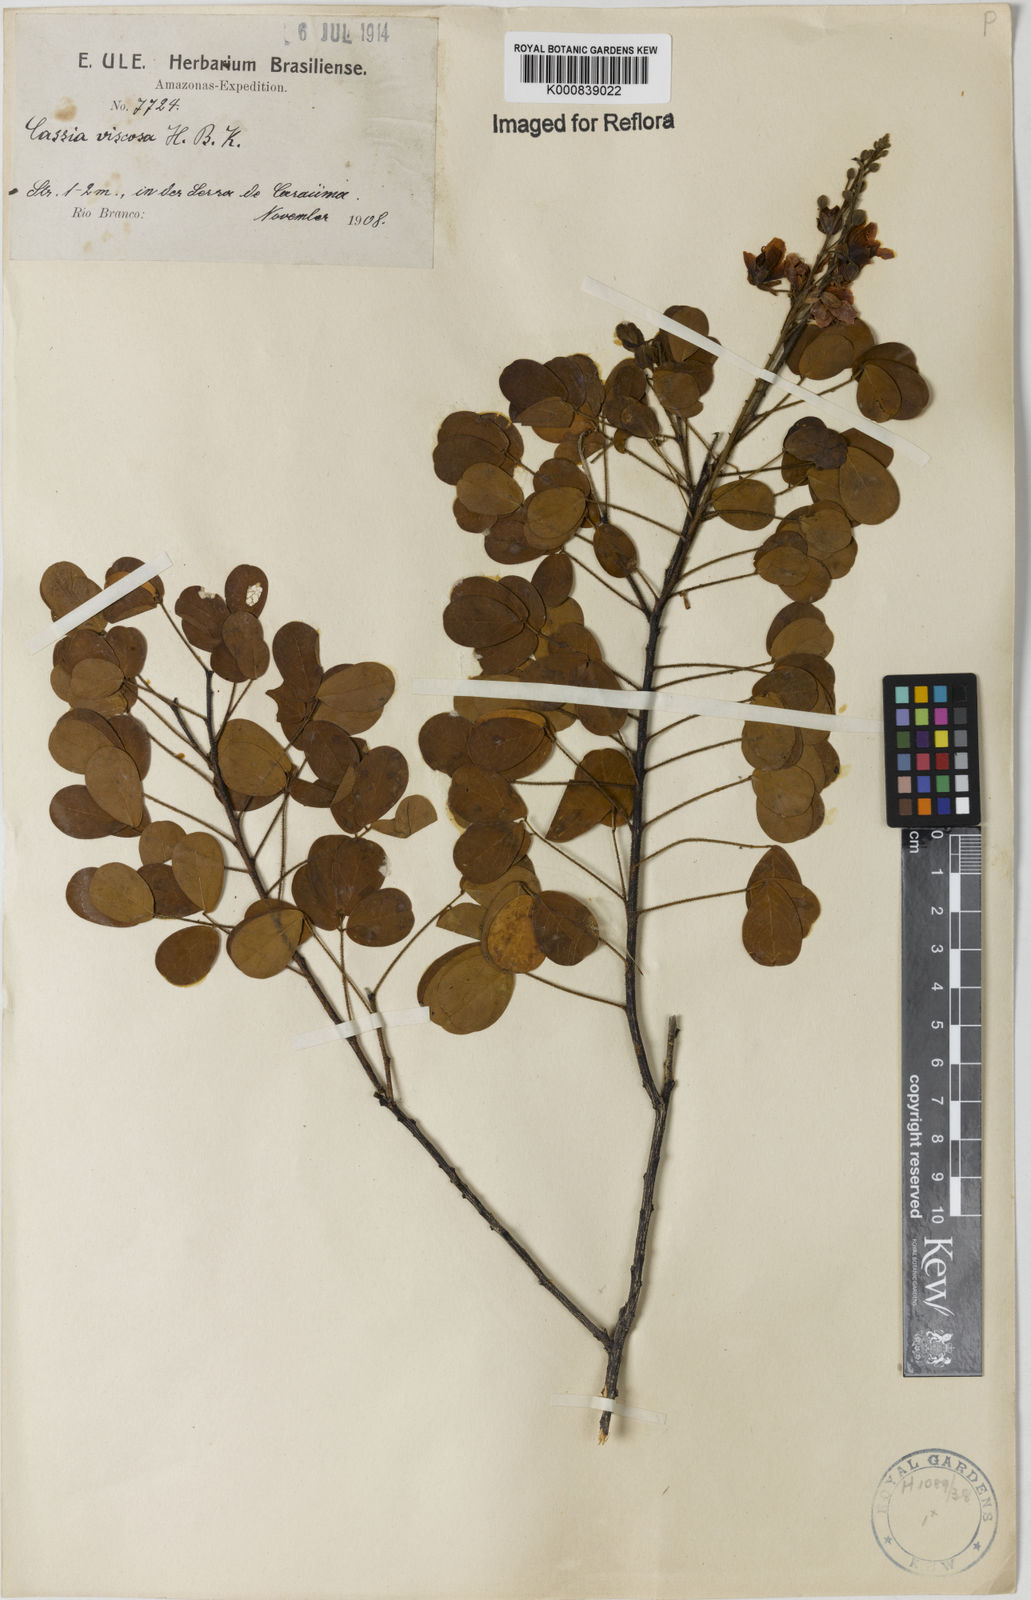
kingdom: Plantae
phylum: Tracheophyta
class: Magnoliopsida
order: Fabales
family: Fabaceae
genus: Chamaecrista
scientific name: Chamaecrista viscosa
